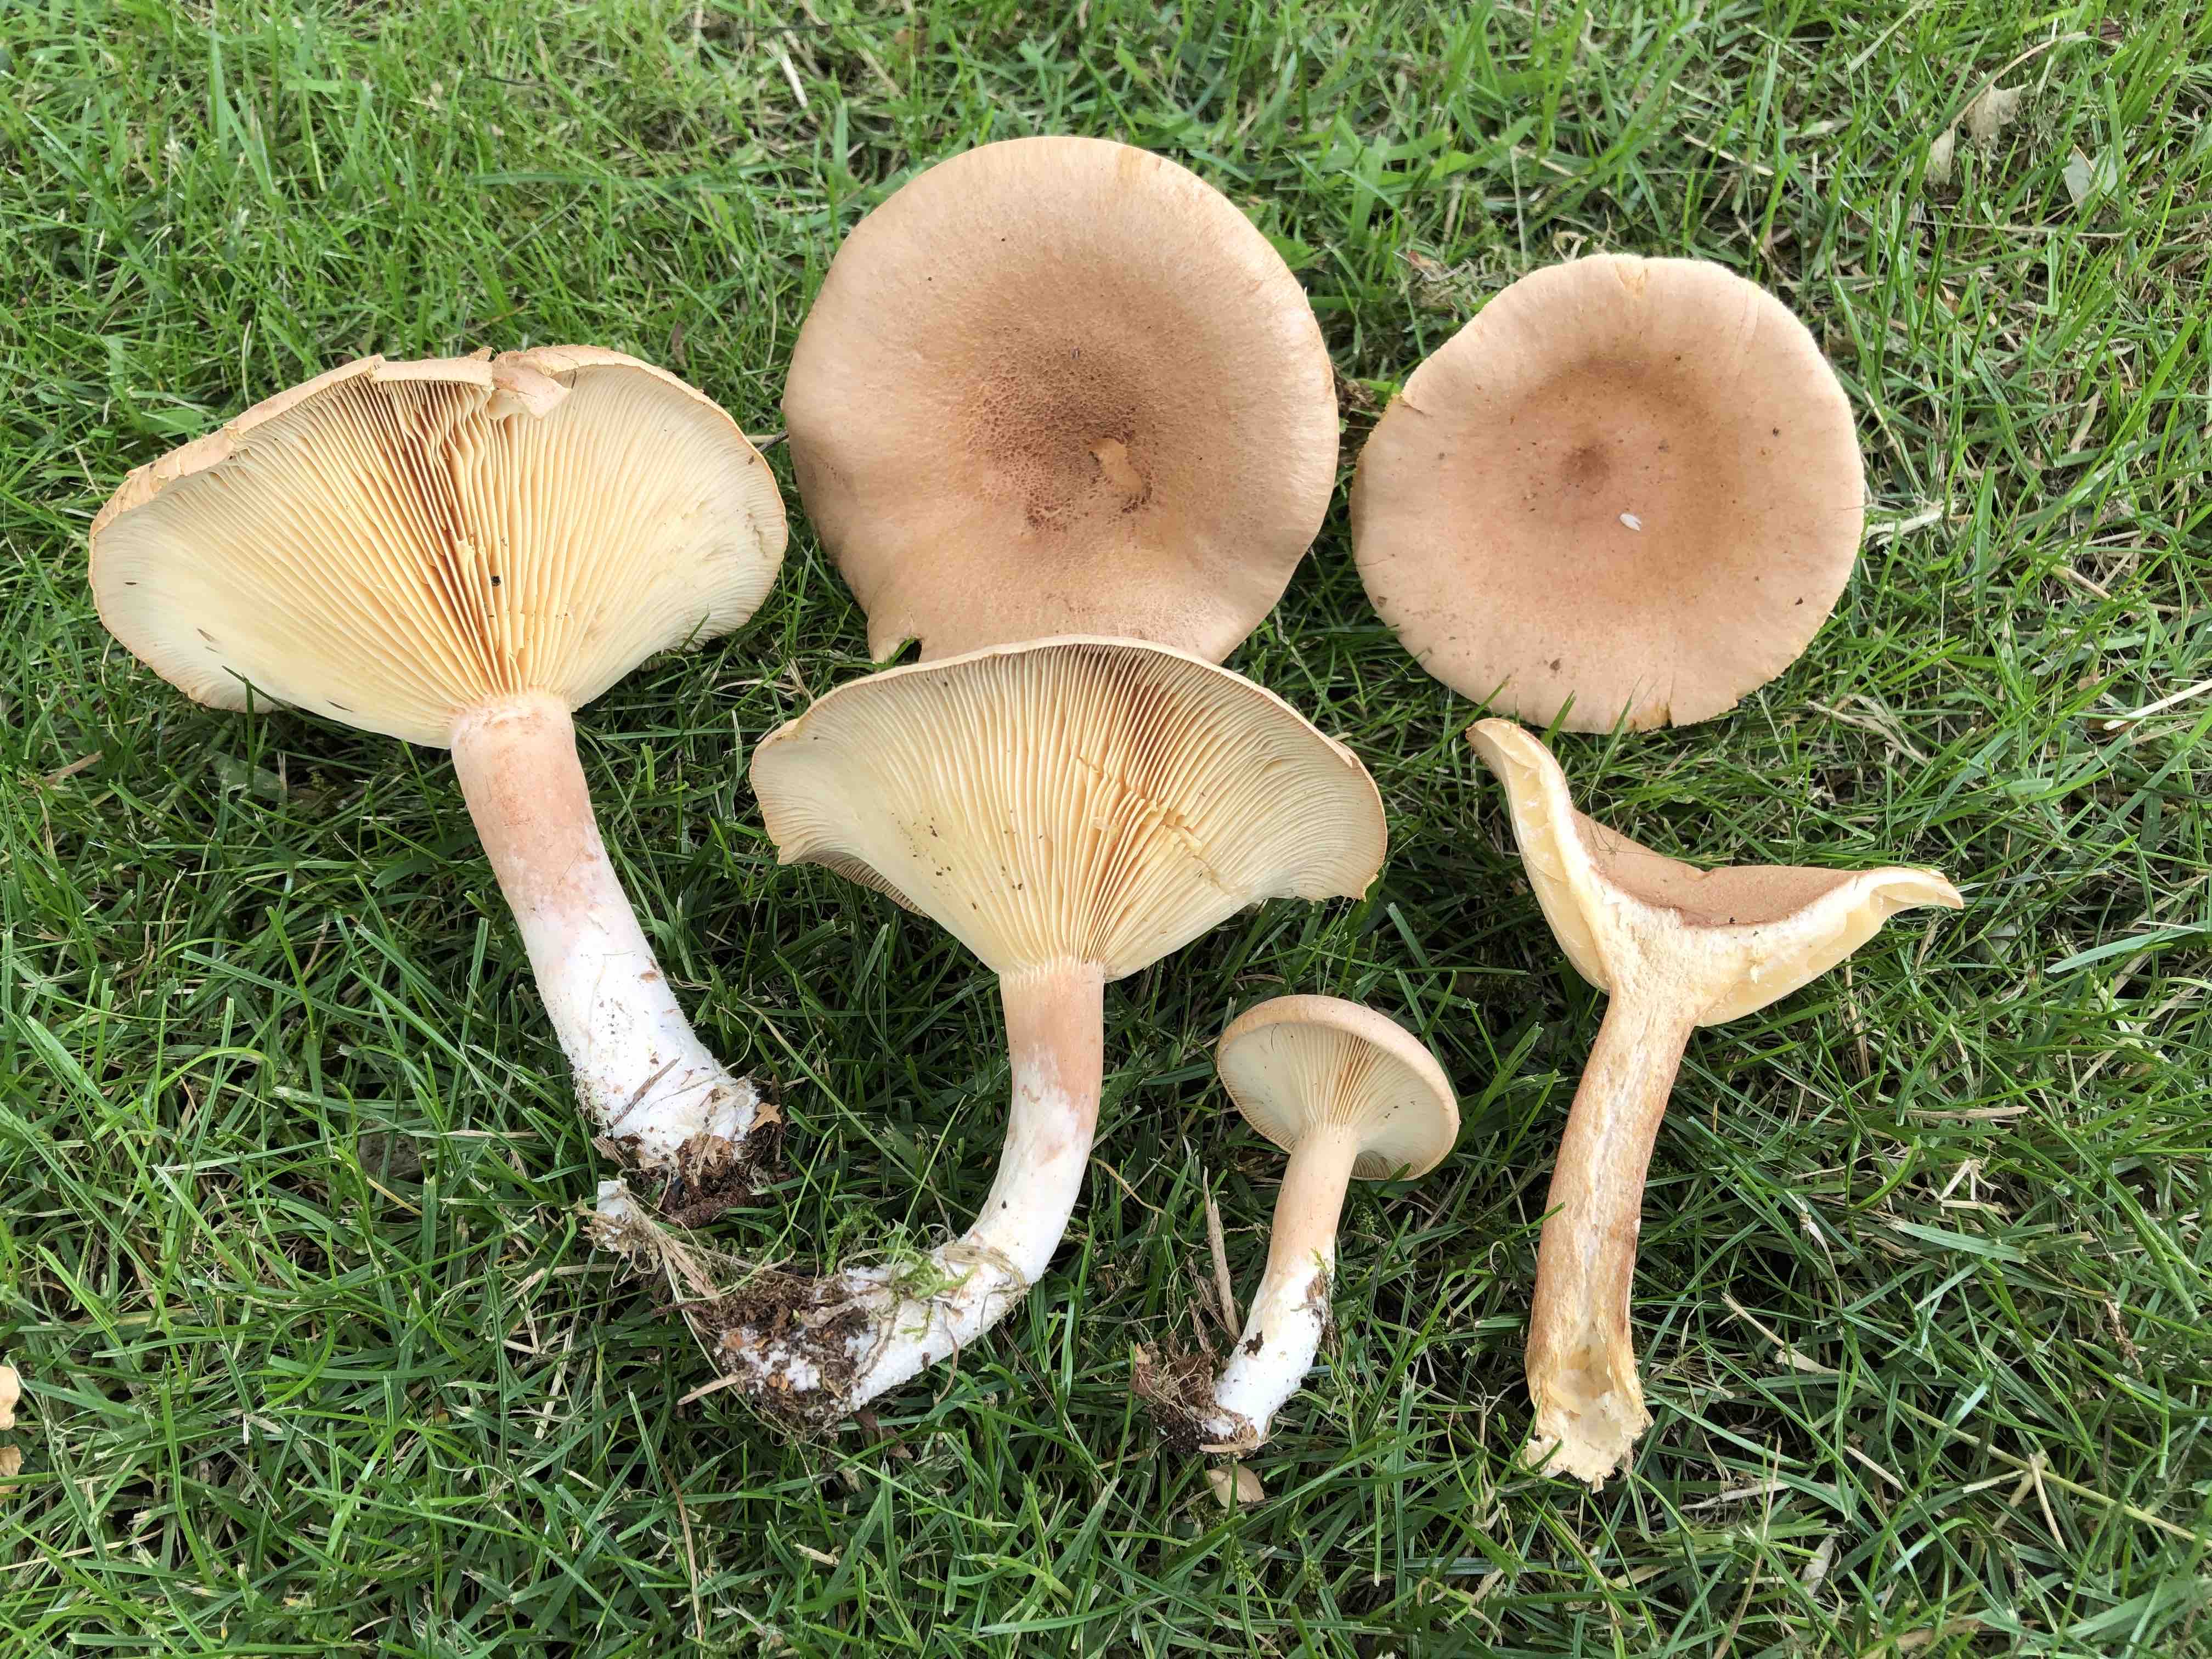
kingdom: Fungi
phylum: Basidiomycota
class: Agaricomycetes
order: Russulales
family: Russulaceae
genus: Lactarius
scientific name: Lactarius helvus
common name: mose-mælkehat
